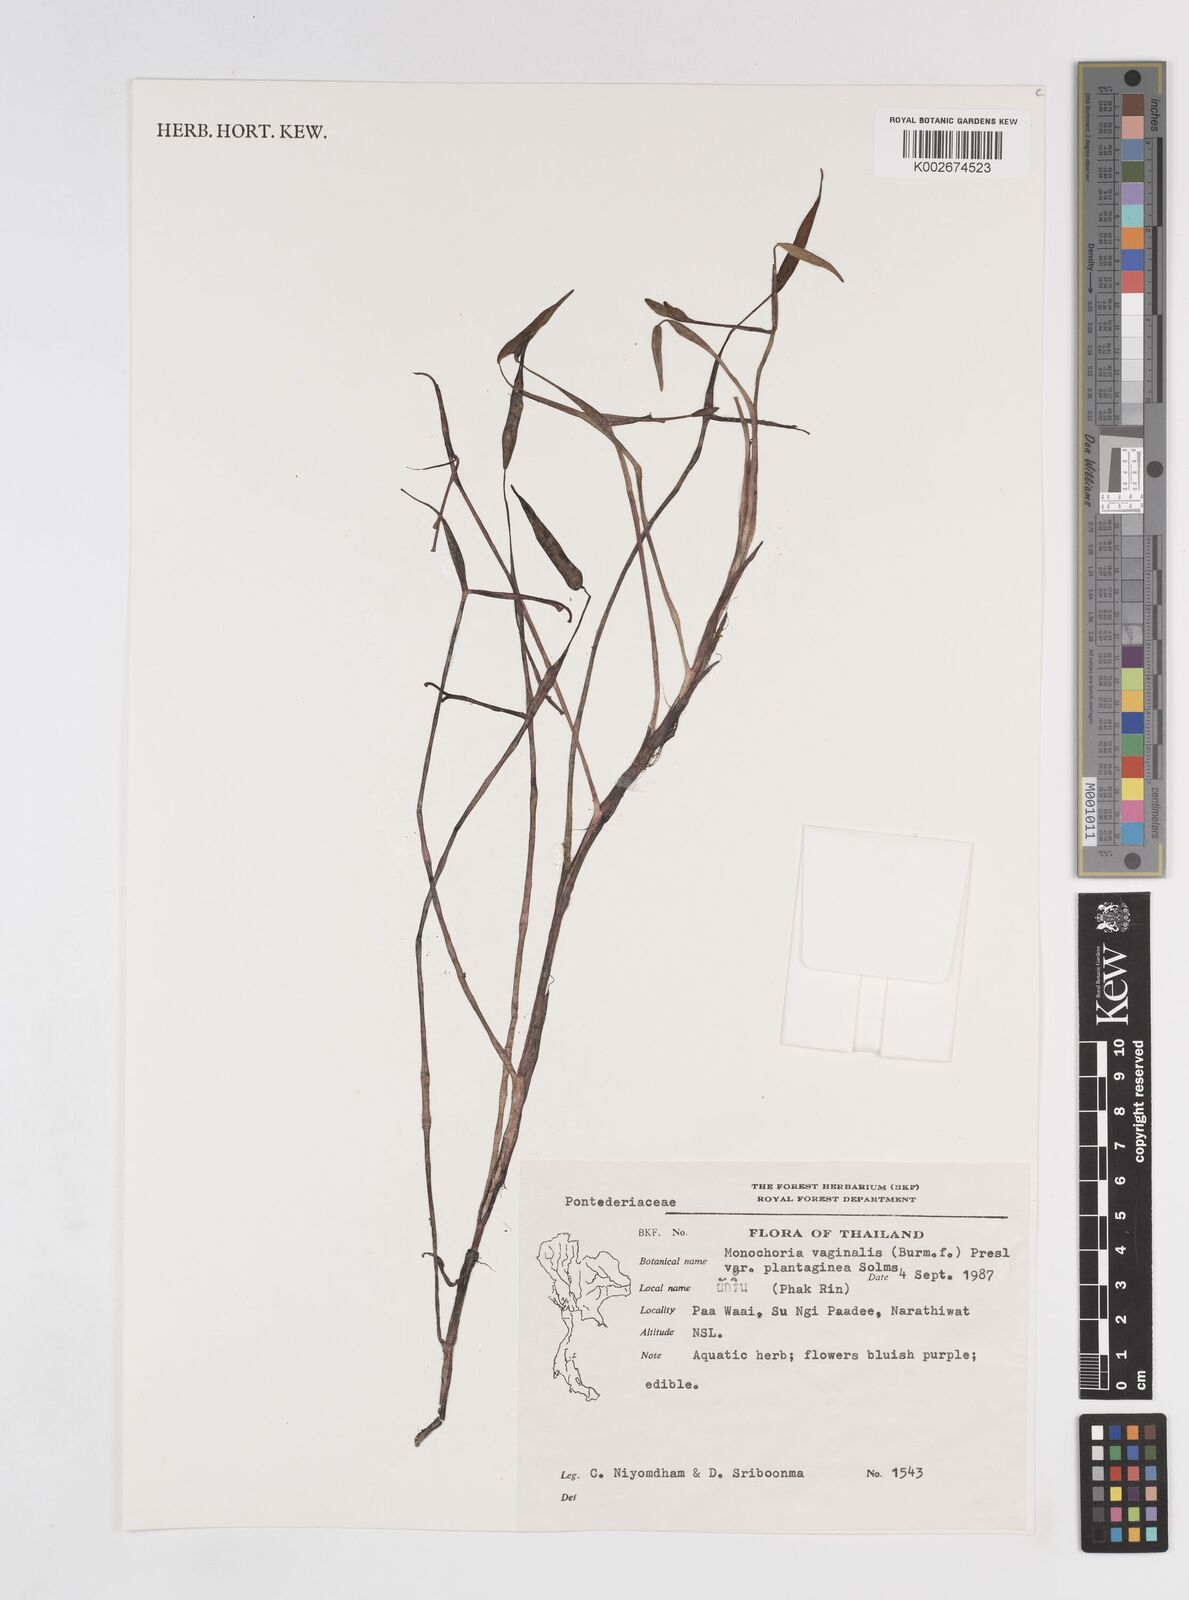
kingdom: Plantae
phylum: Tracheophyta
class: Liliopsida
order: Commelinales
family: Pontederiaceae
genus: Pontederia
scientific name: Pontederia vaginalis
